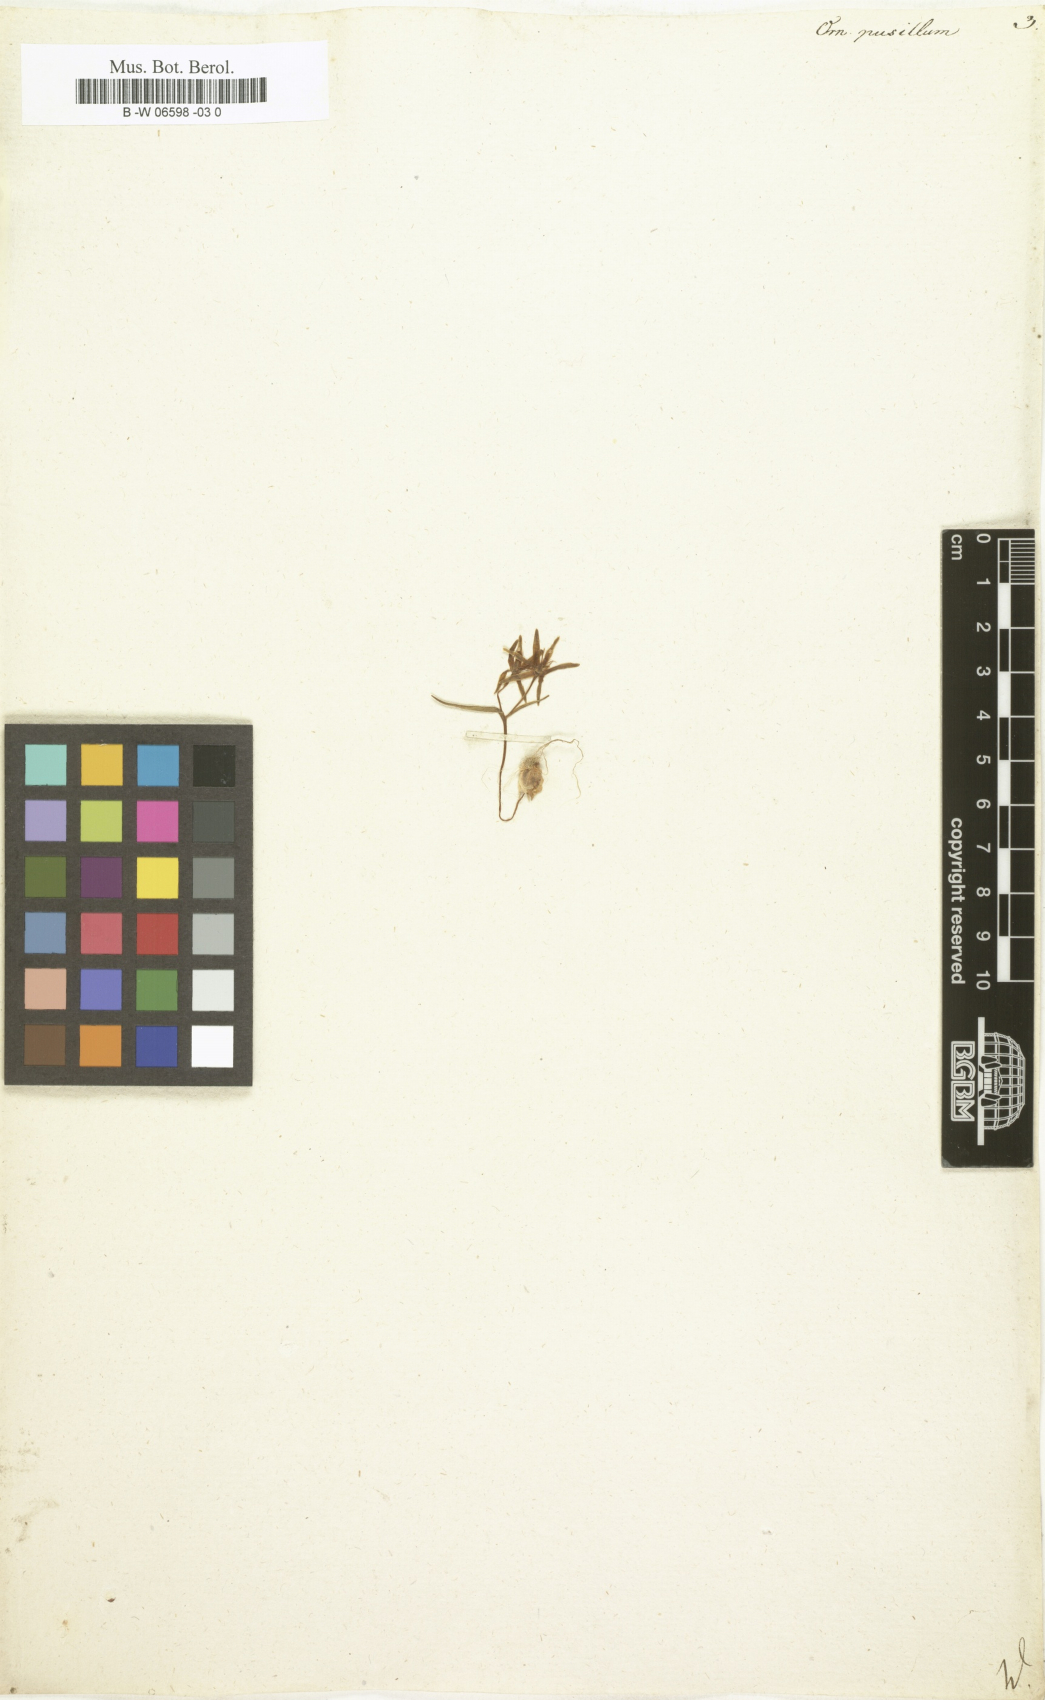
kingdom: Plantae
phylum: Tracheophyta
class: Liliopsida
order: Liliales
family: Liliaceae
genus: Gagea
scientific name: Gagea pusilla
